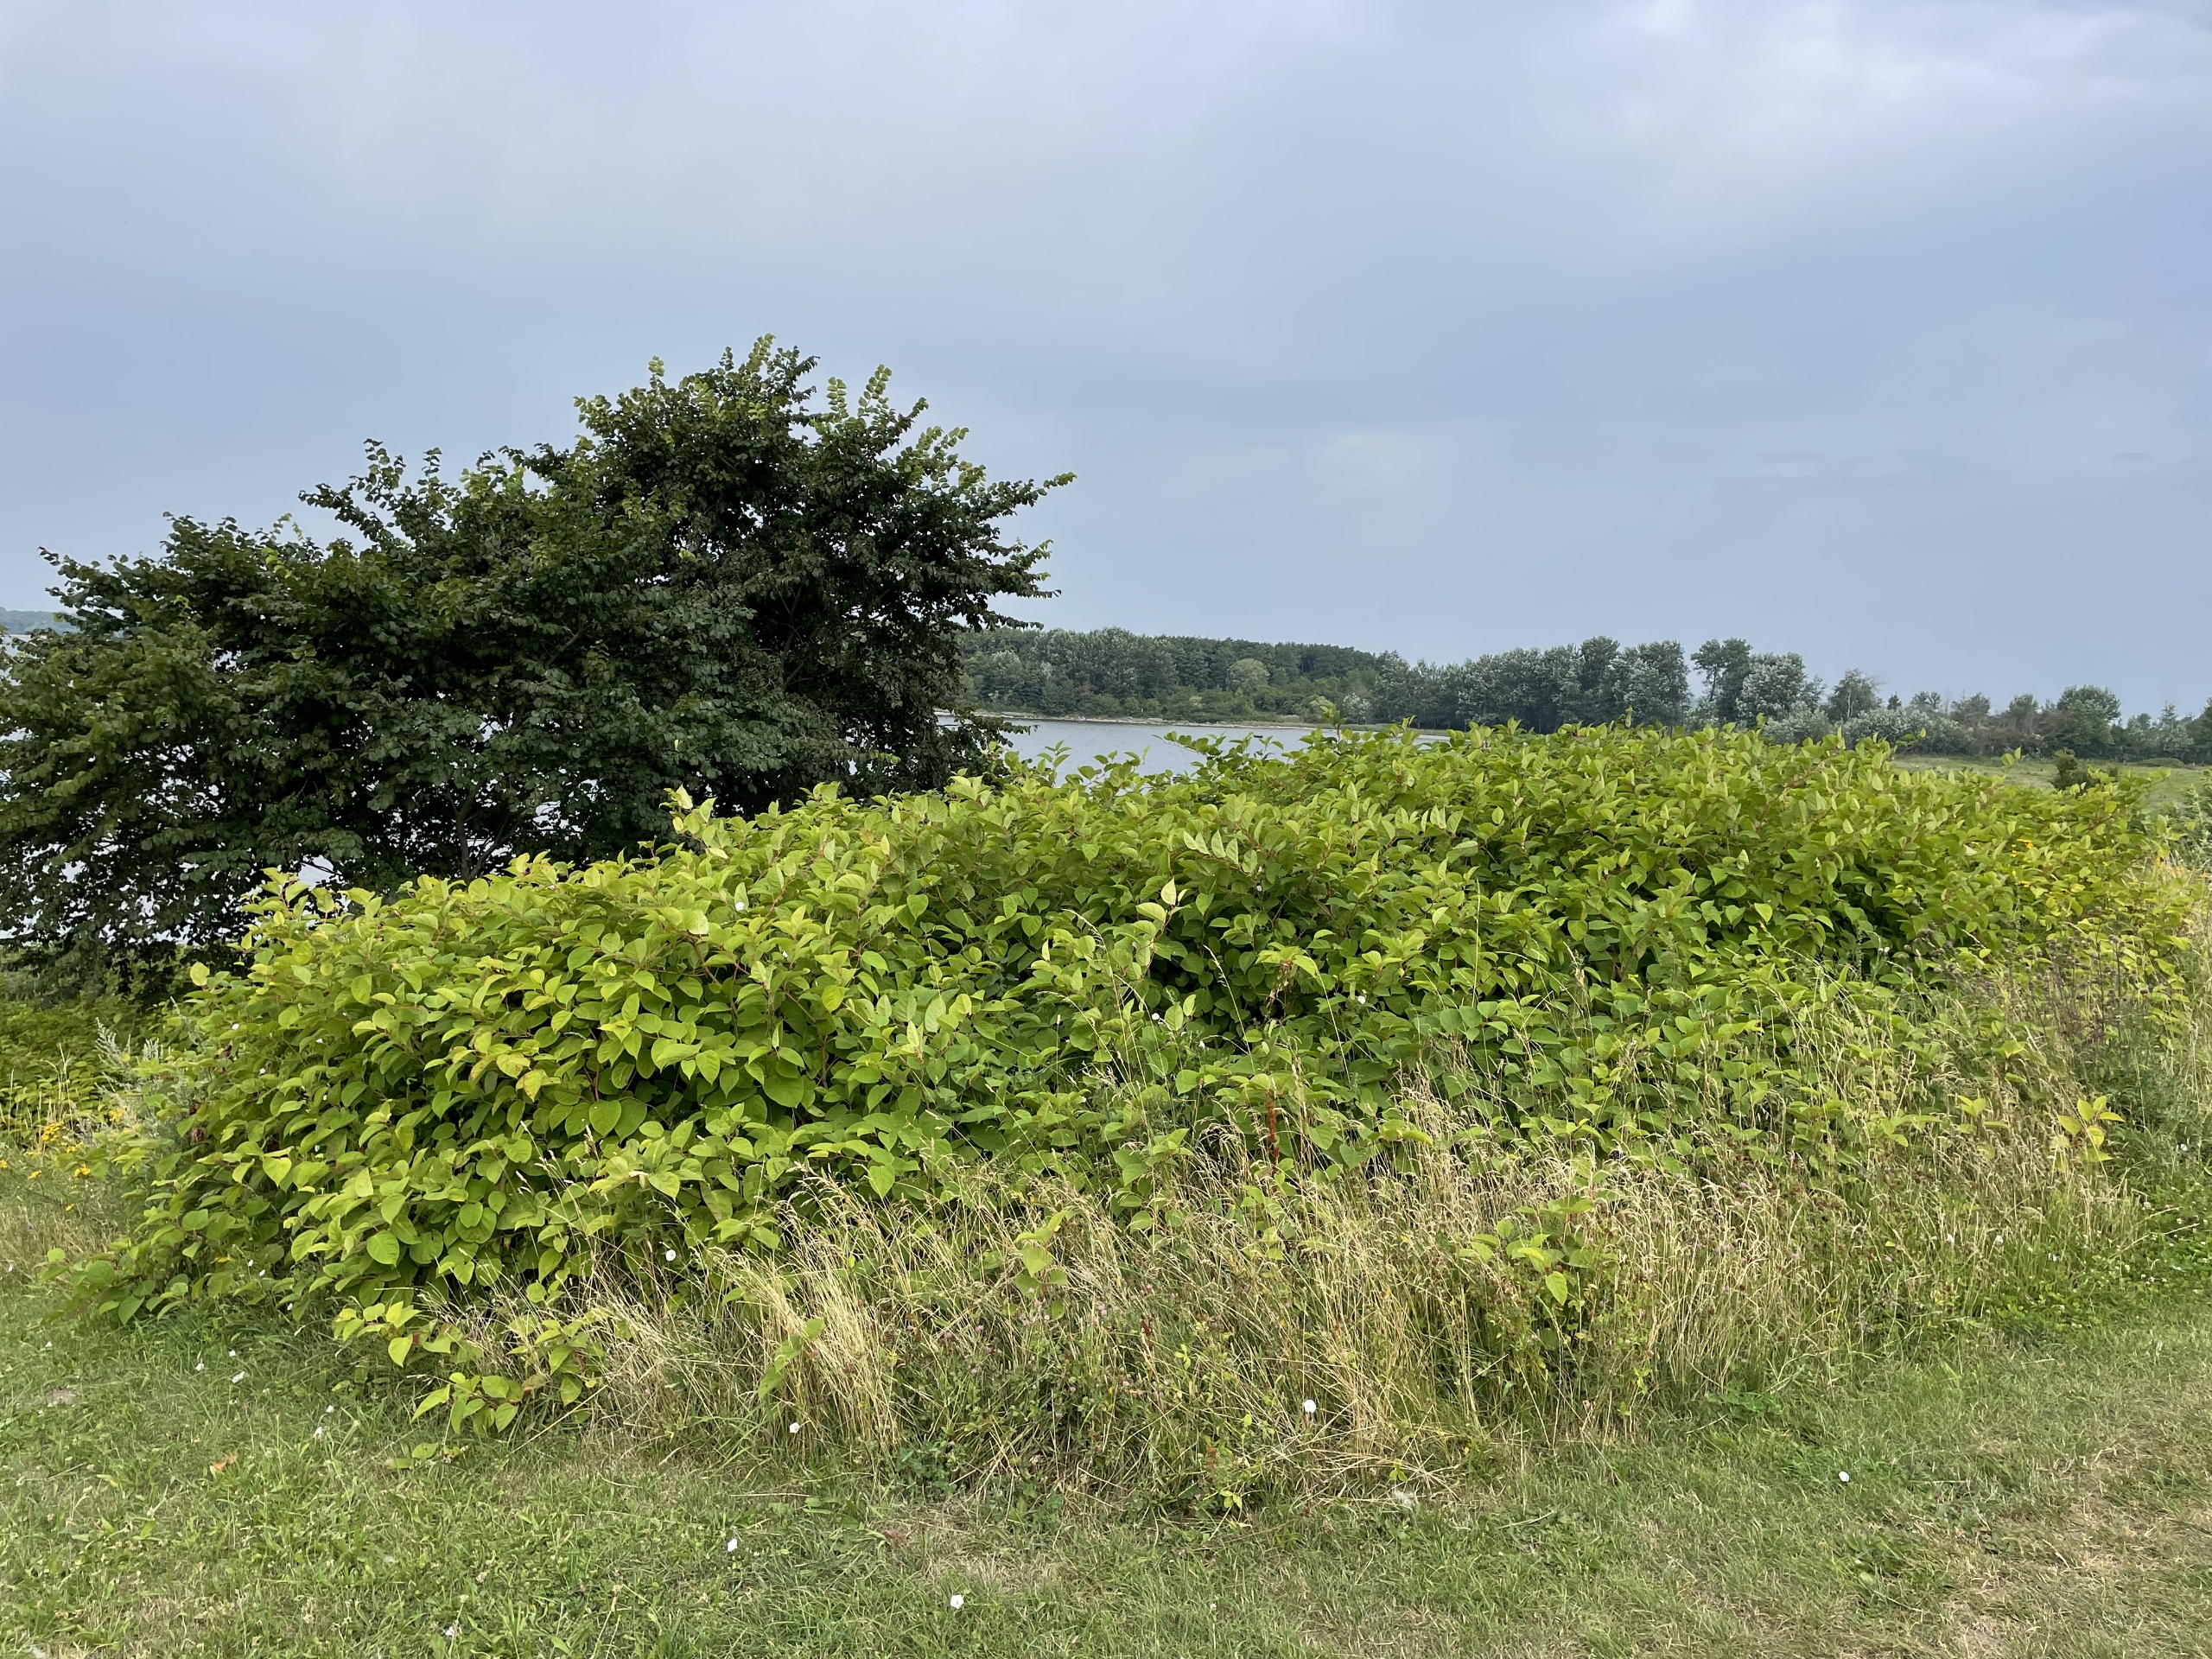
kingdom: Plantae
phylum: Tracheophyta
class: Magnoliopsida
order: Caryophyllales
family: Polygonaceae
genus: Reynoutria
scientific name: Reynoutria japonica
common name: Japan-pileurt
